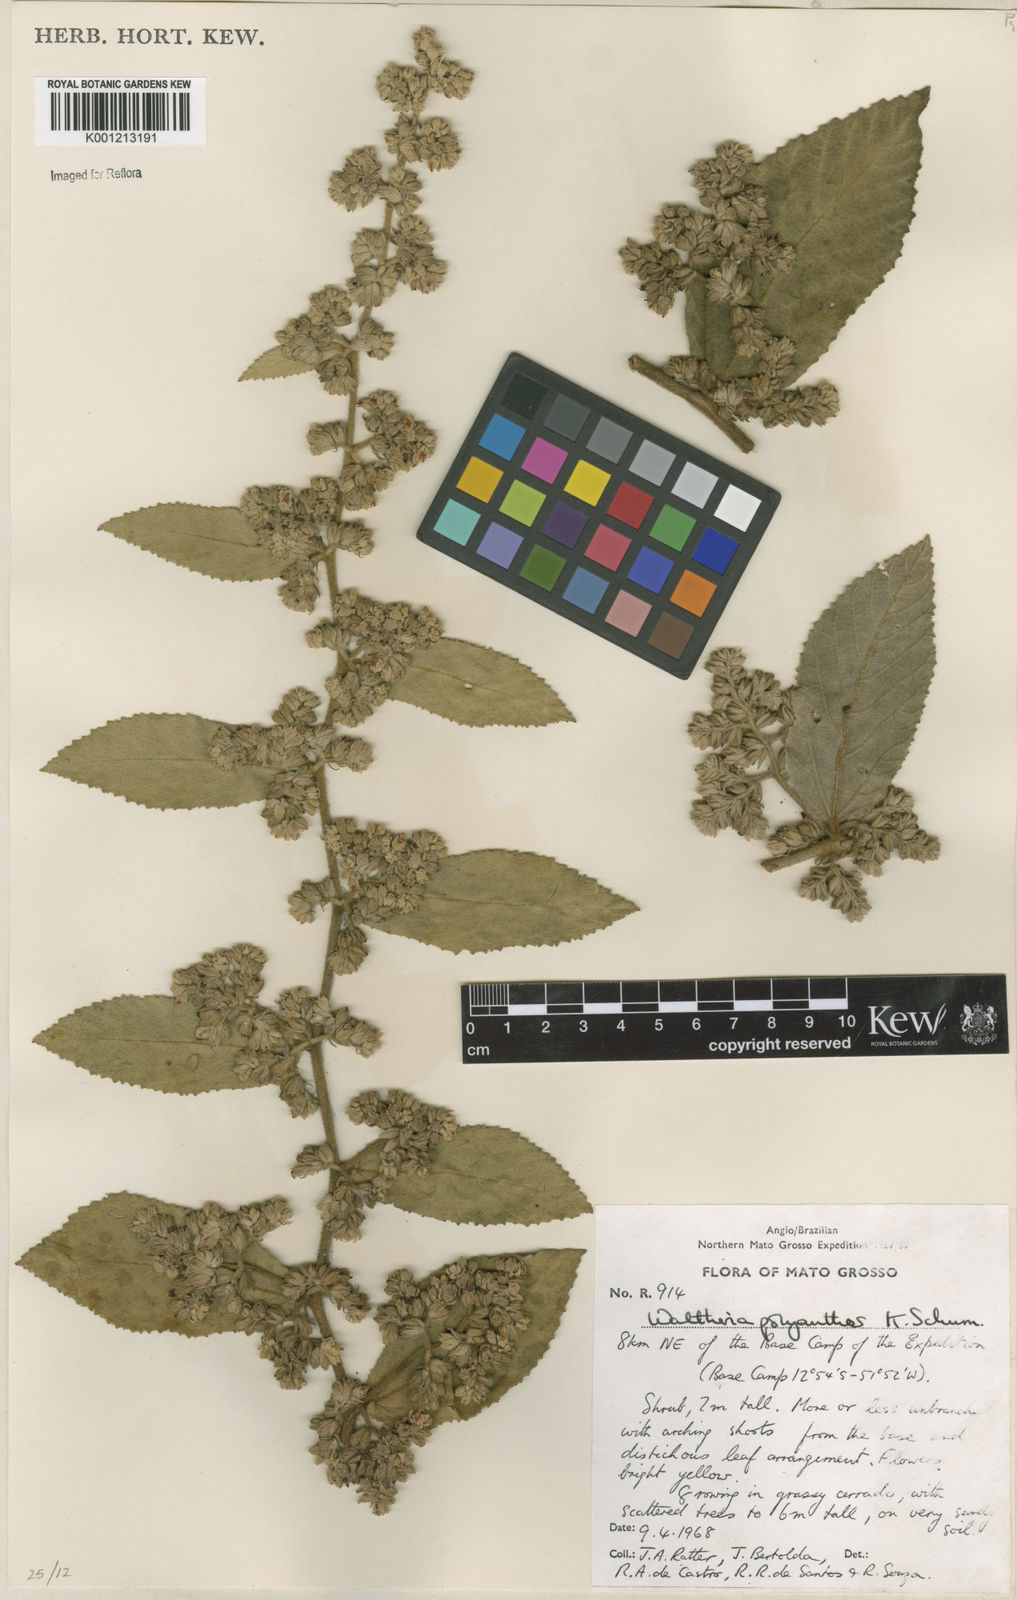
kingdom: Plantae
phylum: Tracheophyta
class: Magnoliopsida
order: Malvales
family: Malvaceae
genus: Waltheria
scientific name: Waltheria polyantha
